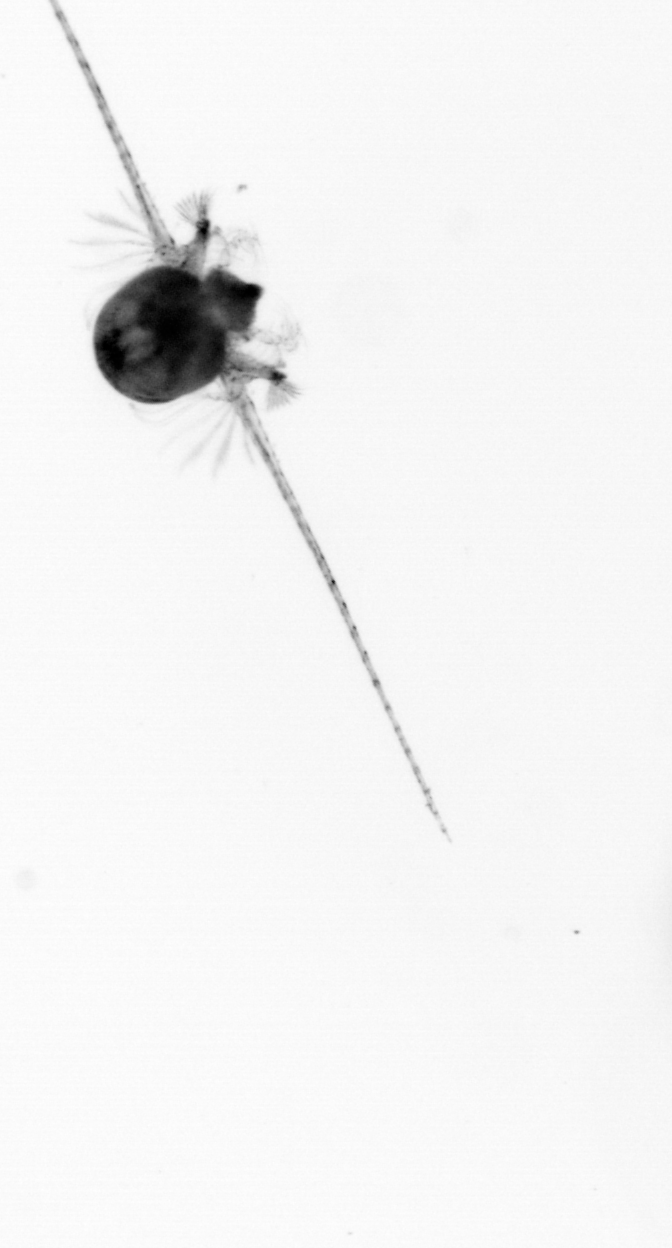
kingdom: Animalia
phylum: Arthropoda
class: Copepoda
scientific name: Copepoda
